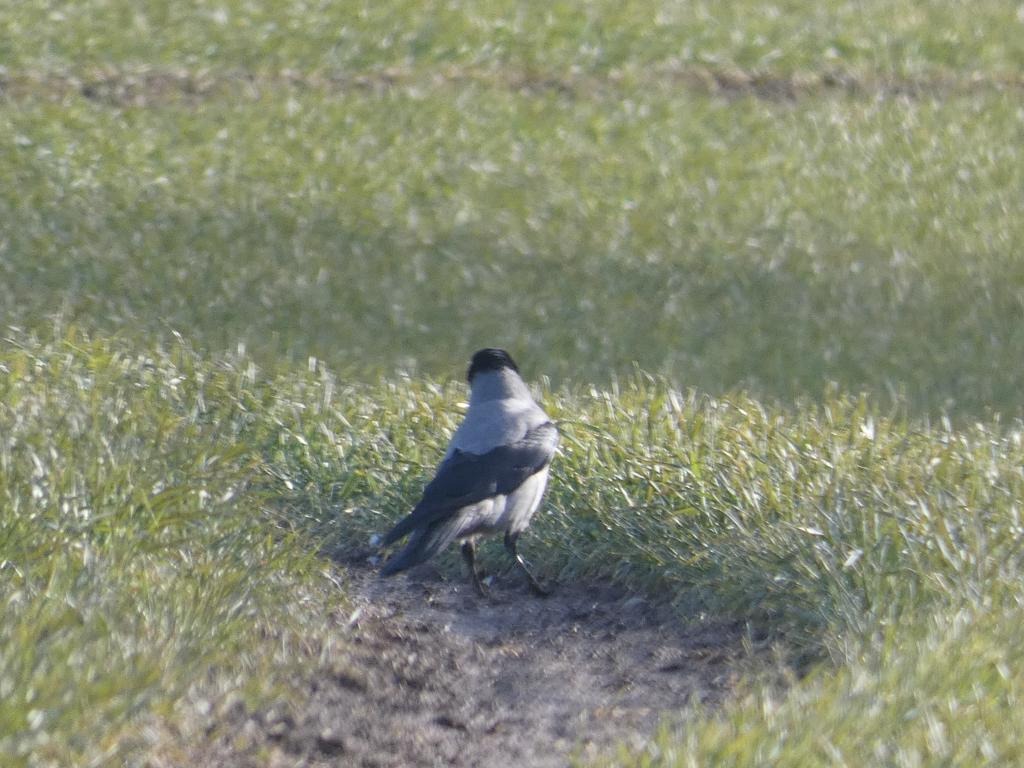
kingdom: Animalia
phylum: Chordata
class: Aves
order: Passeriformes
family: Corvidae
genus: Corvus
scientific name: Corvus cornix
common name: Gråkrage
